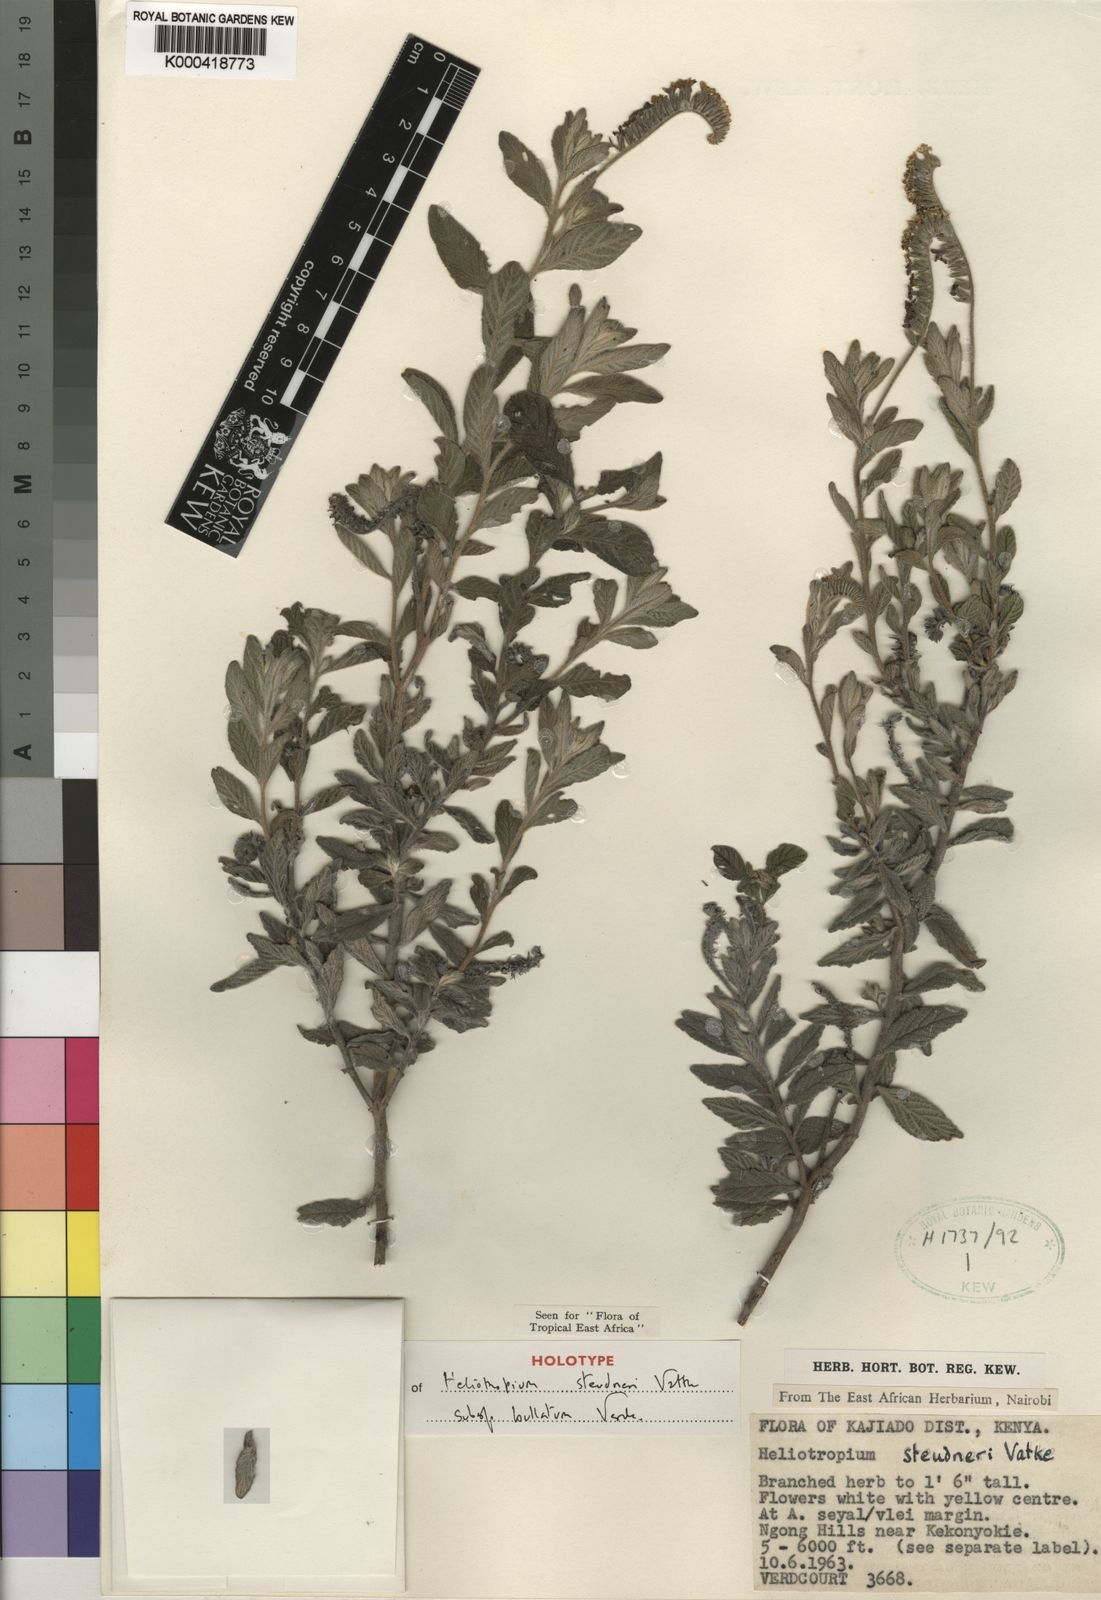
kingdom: Plantae
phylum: Tracheophyta
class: Magnoliopsida
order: Boraginales
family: Heliotropiaceae
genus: Heliotropium
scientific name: Heliotropium steudneri
